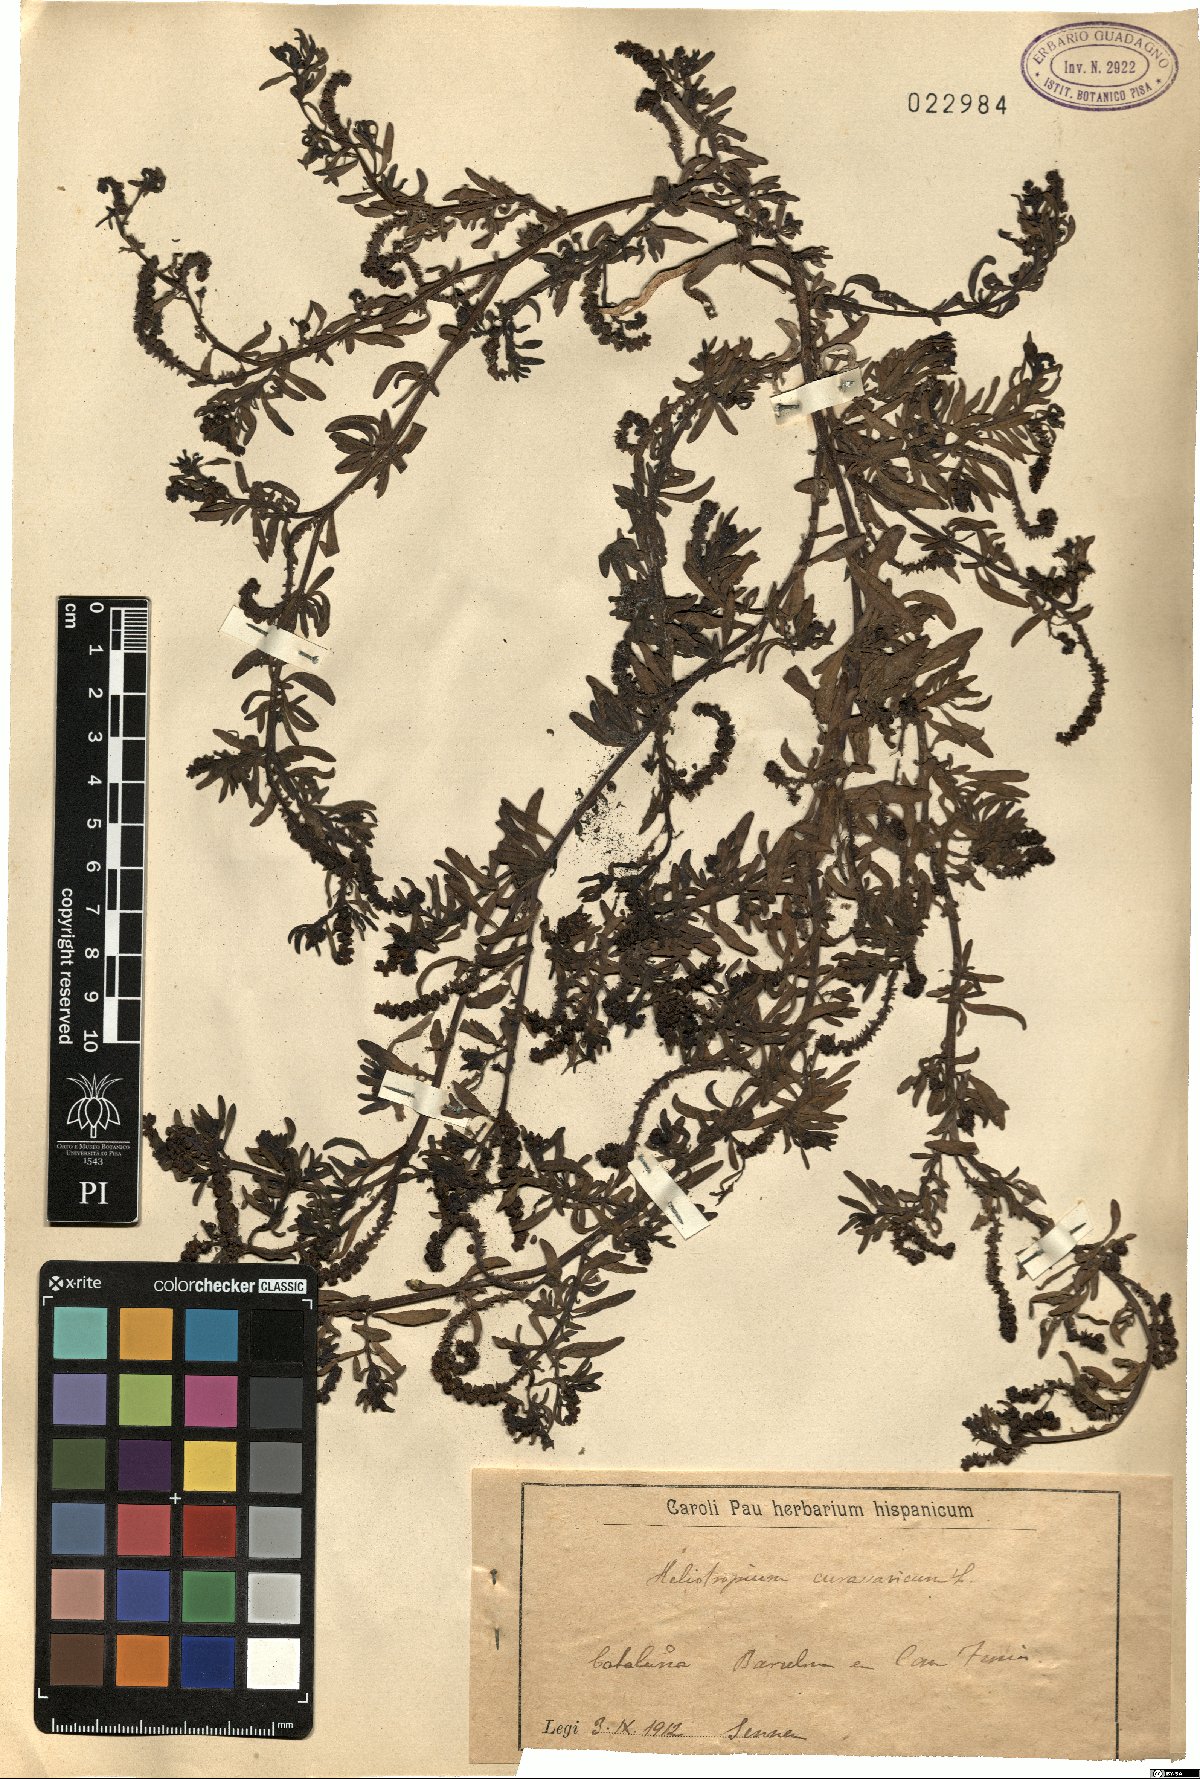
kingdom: Plantae
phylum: Tracheophyta
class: Magnoliopsida
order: Boraginales
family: Heliotropiaceae
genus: Heliotropium
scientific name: Heliotropium curassavicum
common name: Seaside heliotrope
